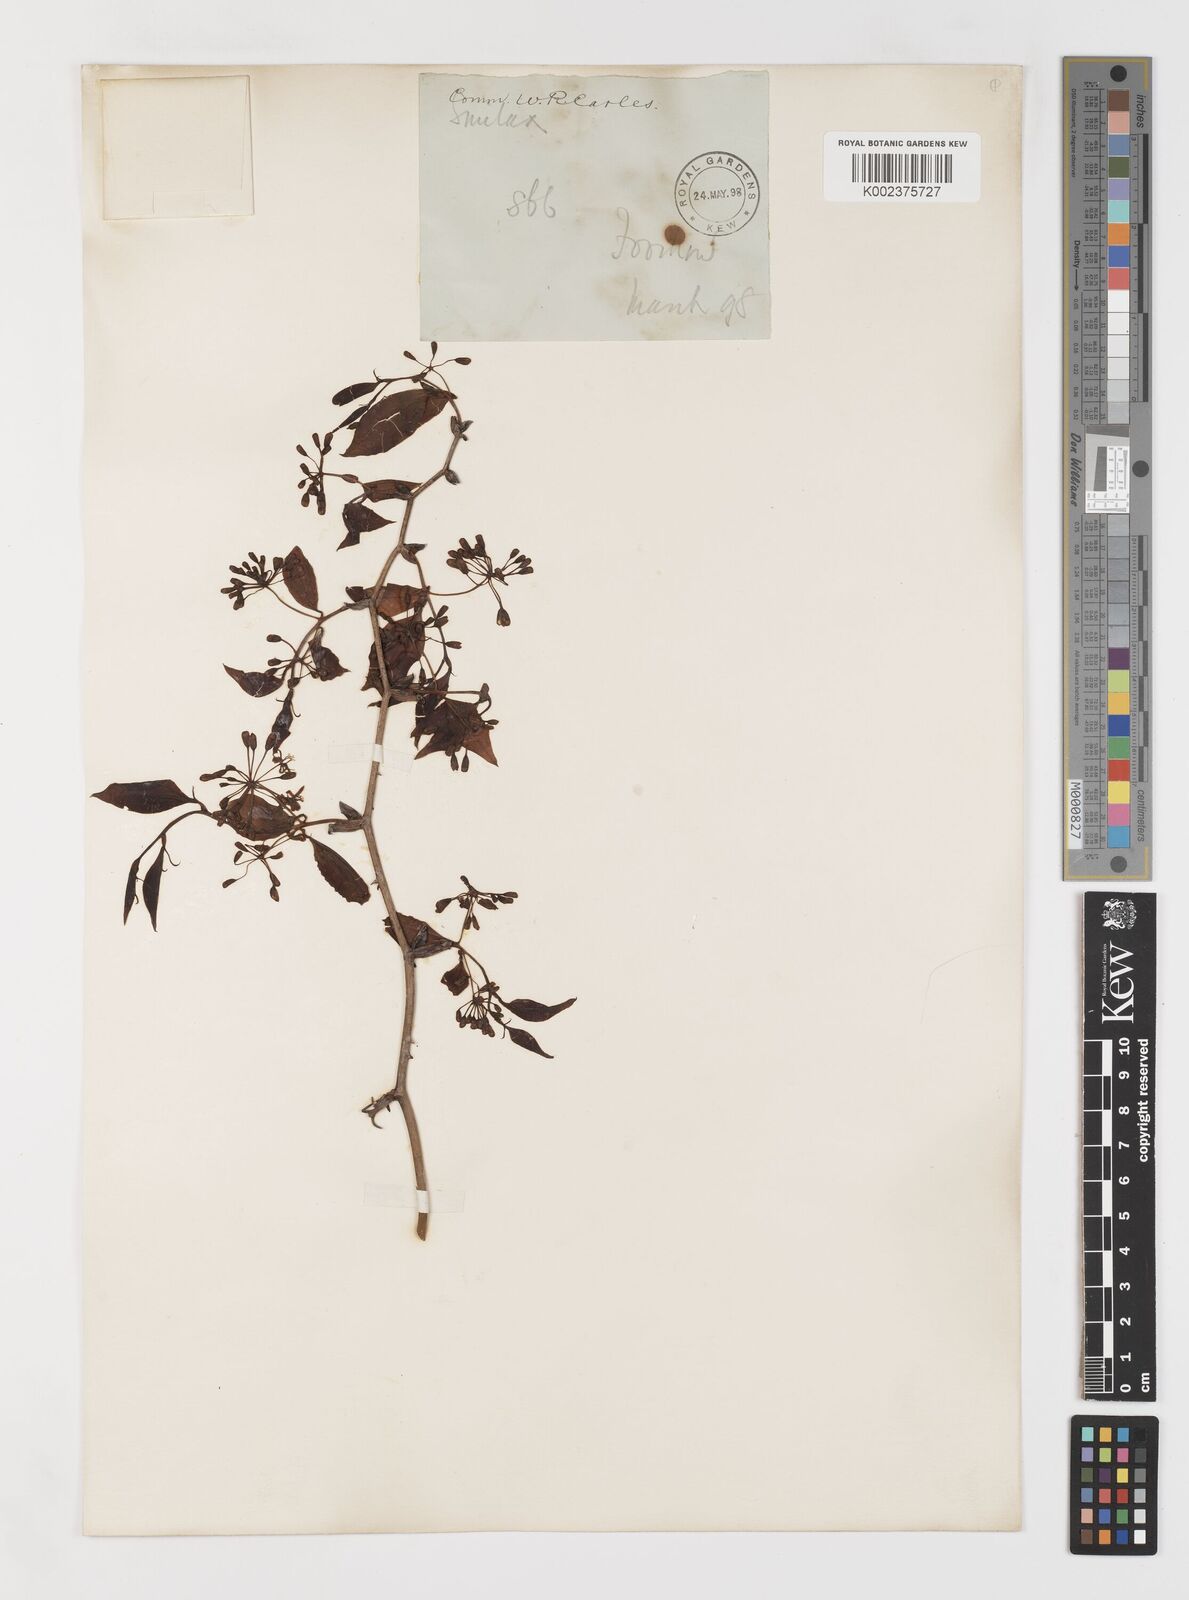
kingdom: Plantae
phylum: Tracheophyta
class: Liliopsida
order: Liliales
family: Smilacaceae
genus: Smilax
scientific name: Smilax
